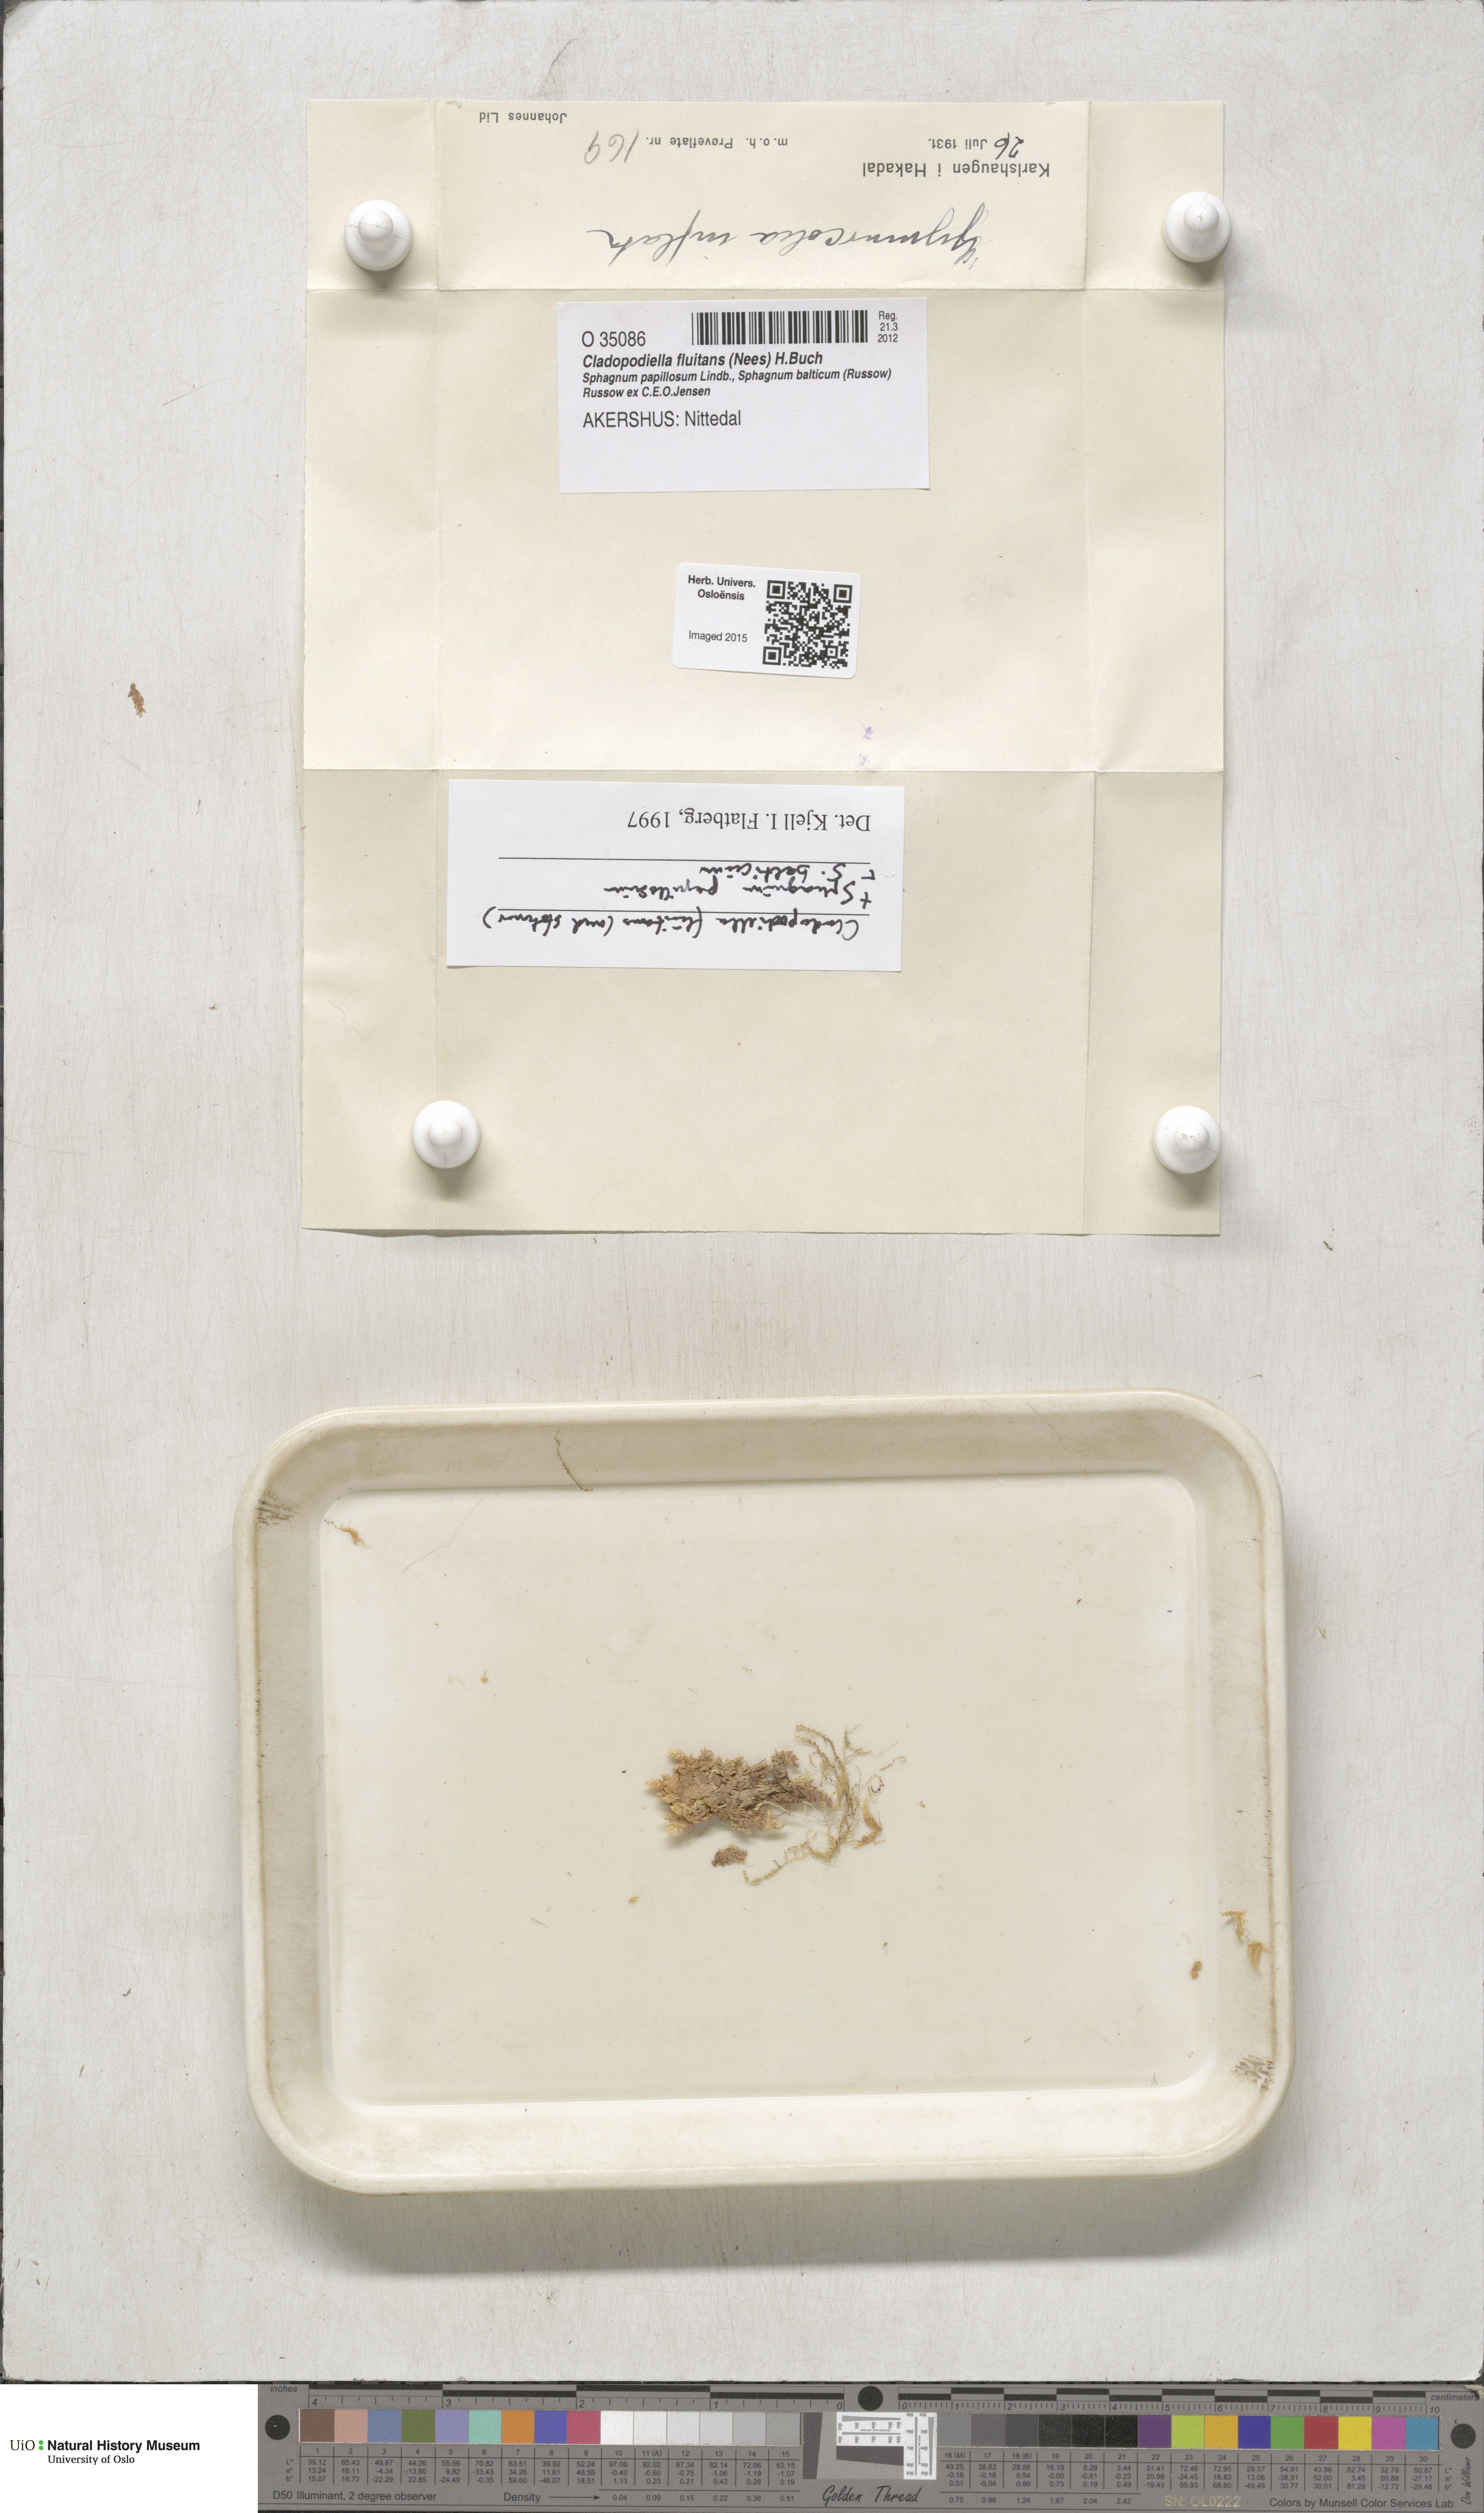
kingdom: Plantae
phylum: Marchantiophyta
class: Jungermanniopsida
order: Jungermanniales
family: Cephaloziaceae
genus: Odontoschisma
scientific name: Odontoschisma fluitans
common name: Cladopodiella moss
